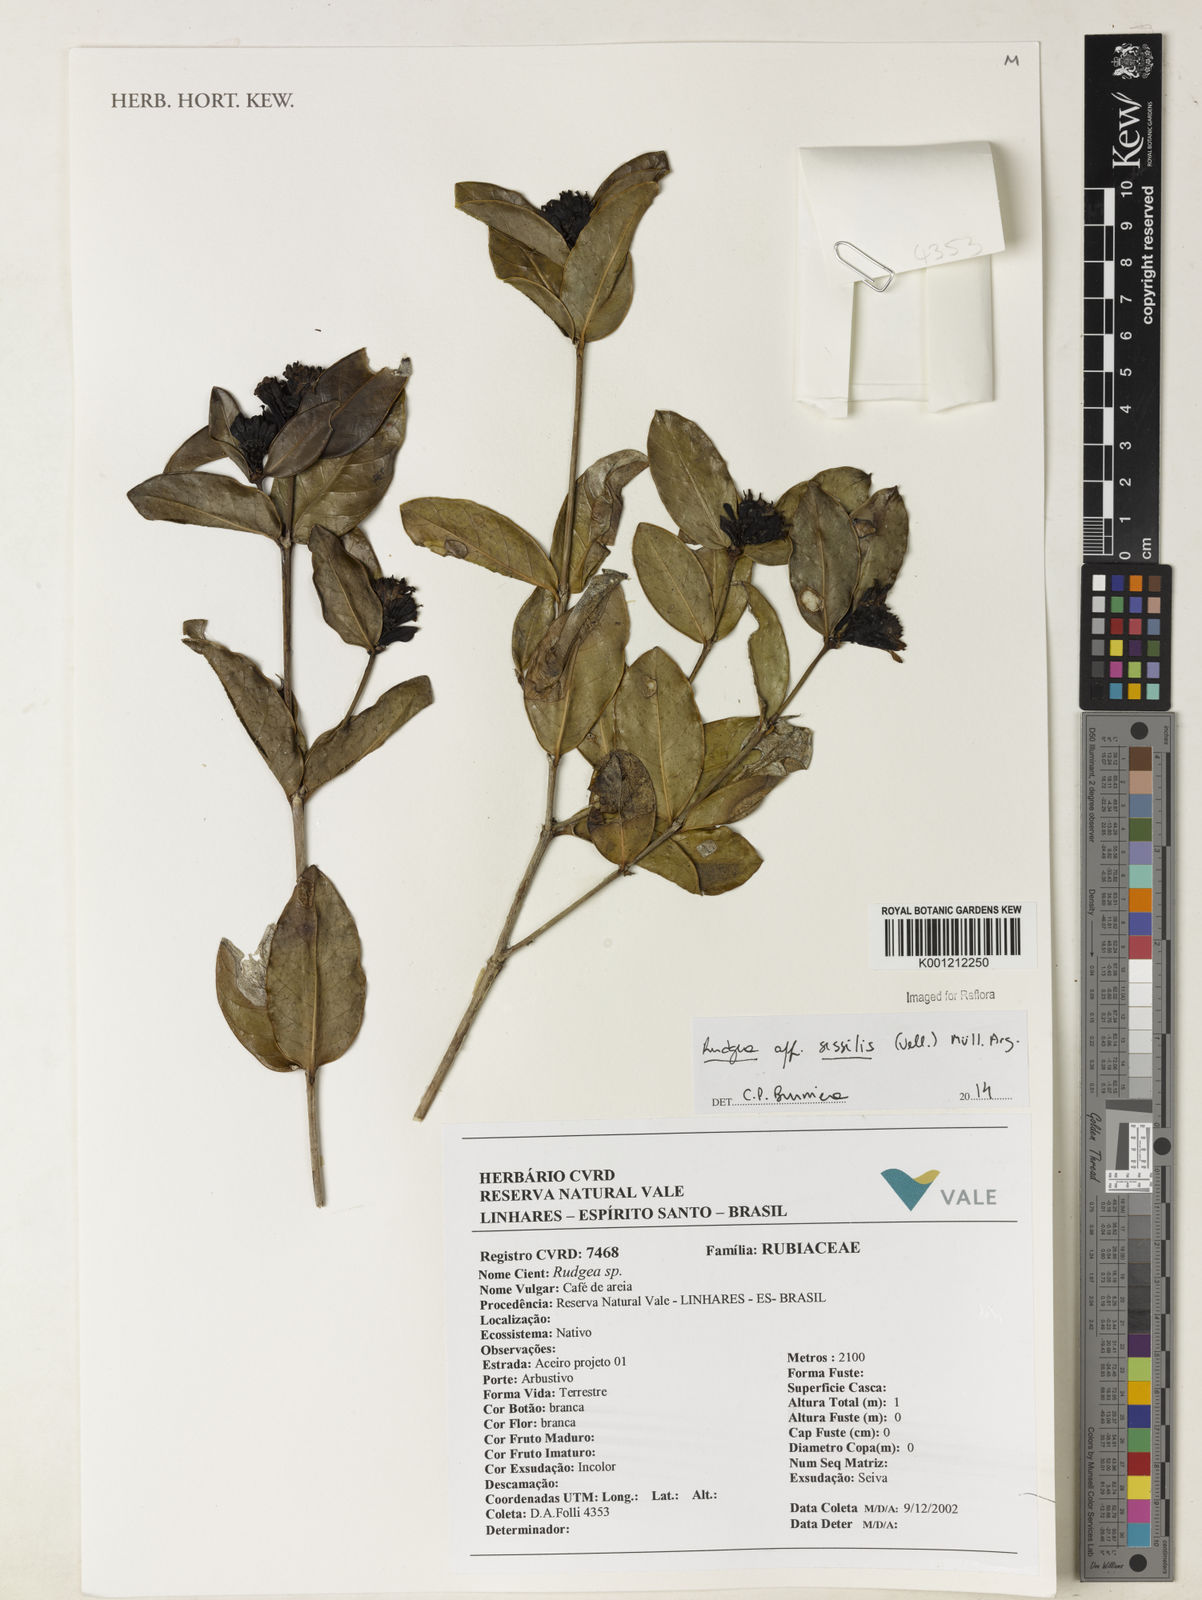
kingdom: Plantae
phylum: Tracheophyta
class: Magnoliopsida
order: Gentianales
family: Rubiaceae
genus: Rudgea
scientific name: Rudgea
